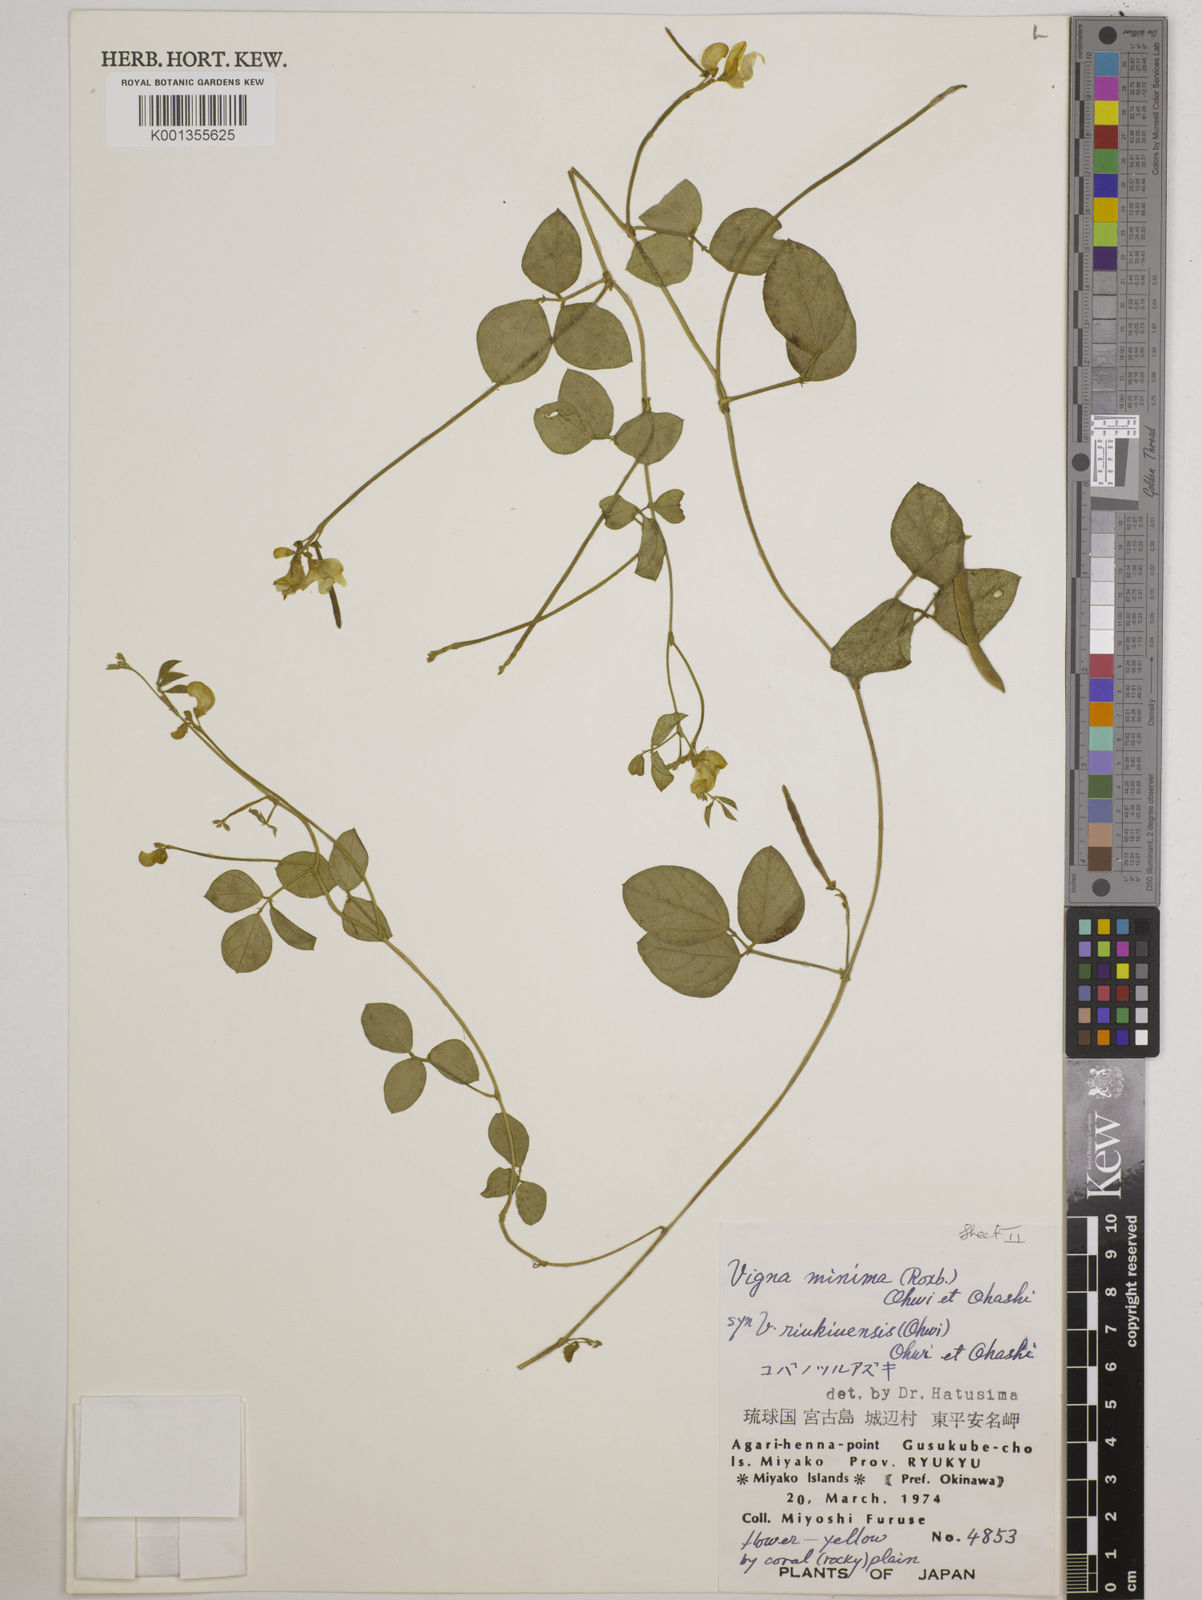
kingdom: Plantae
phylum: Tracheophyta
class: Magnoliopsida
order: Fabales
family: Fabaceae
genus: Vigna
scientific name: Vigna minima
